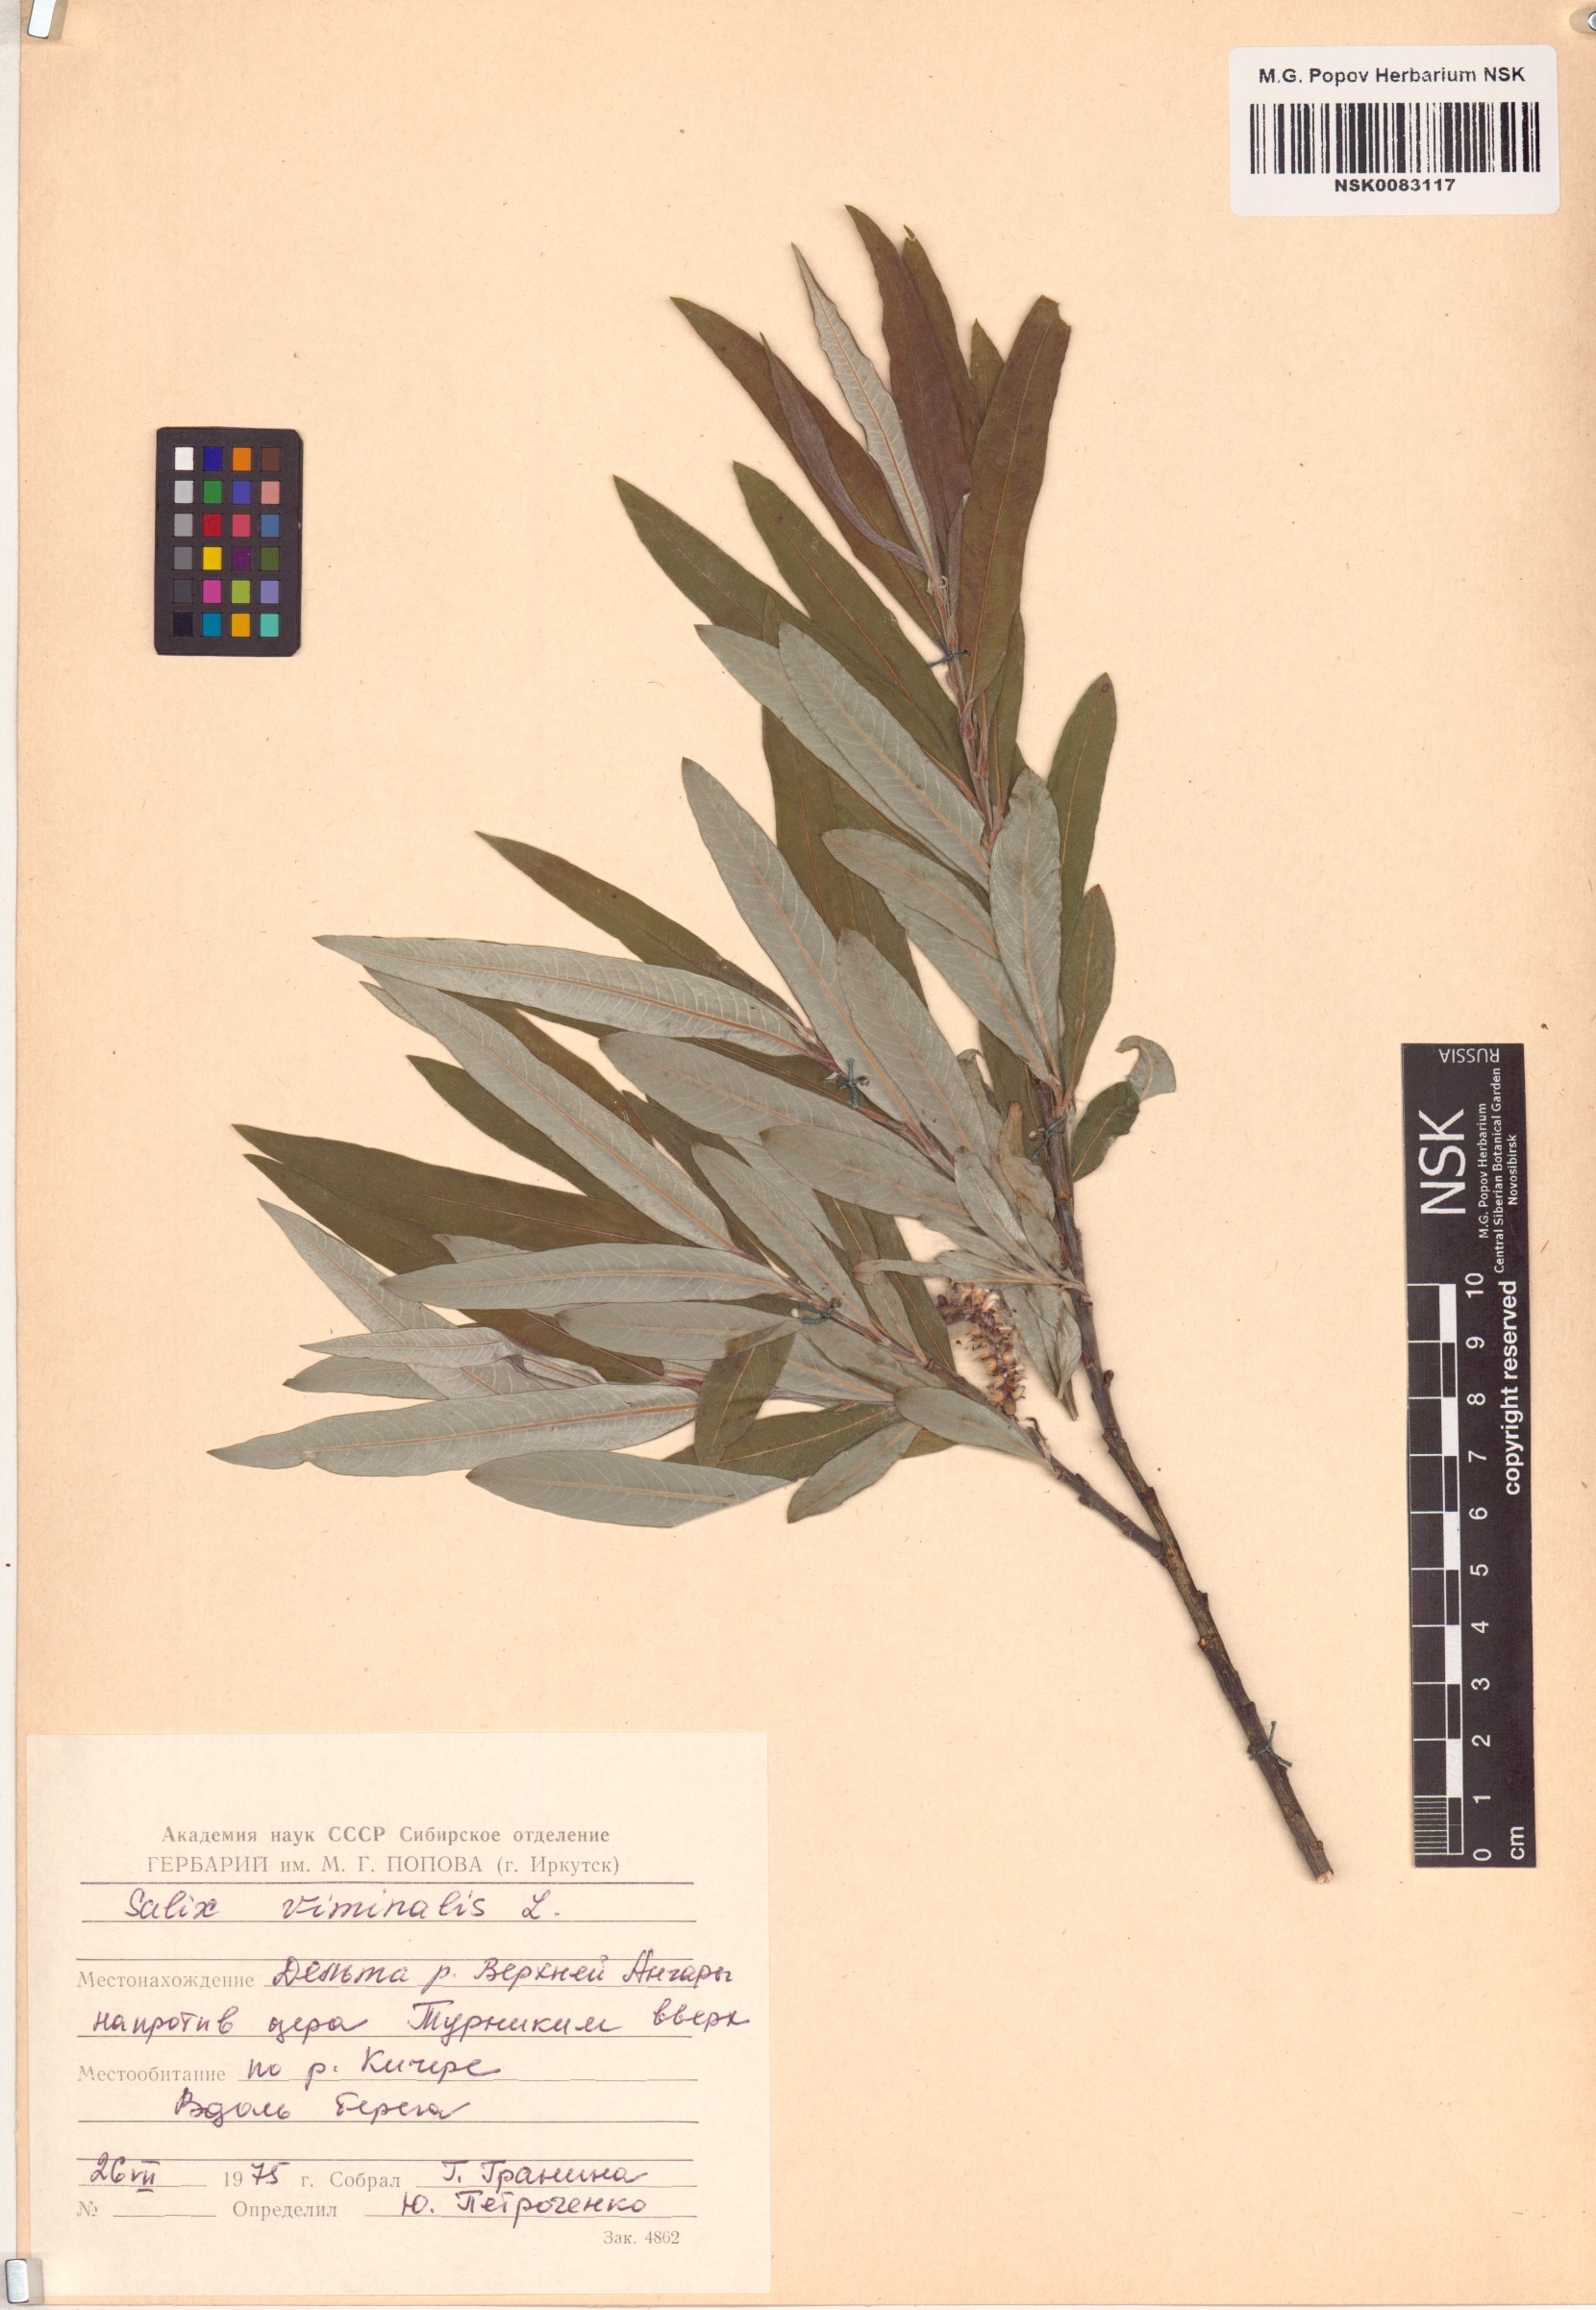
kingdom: Plantae
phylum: Tracheophyta
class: Magnoliopsida
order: Malpighiales
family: Salicaceae
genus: Salix
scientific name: Salix viminalis
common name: Osier
